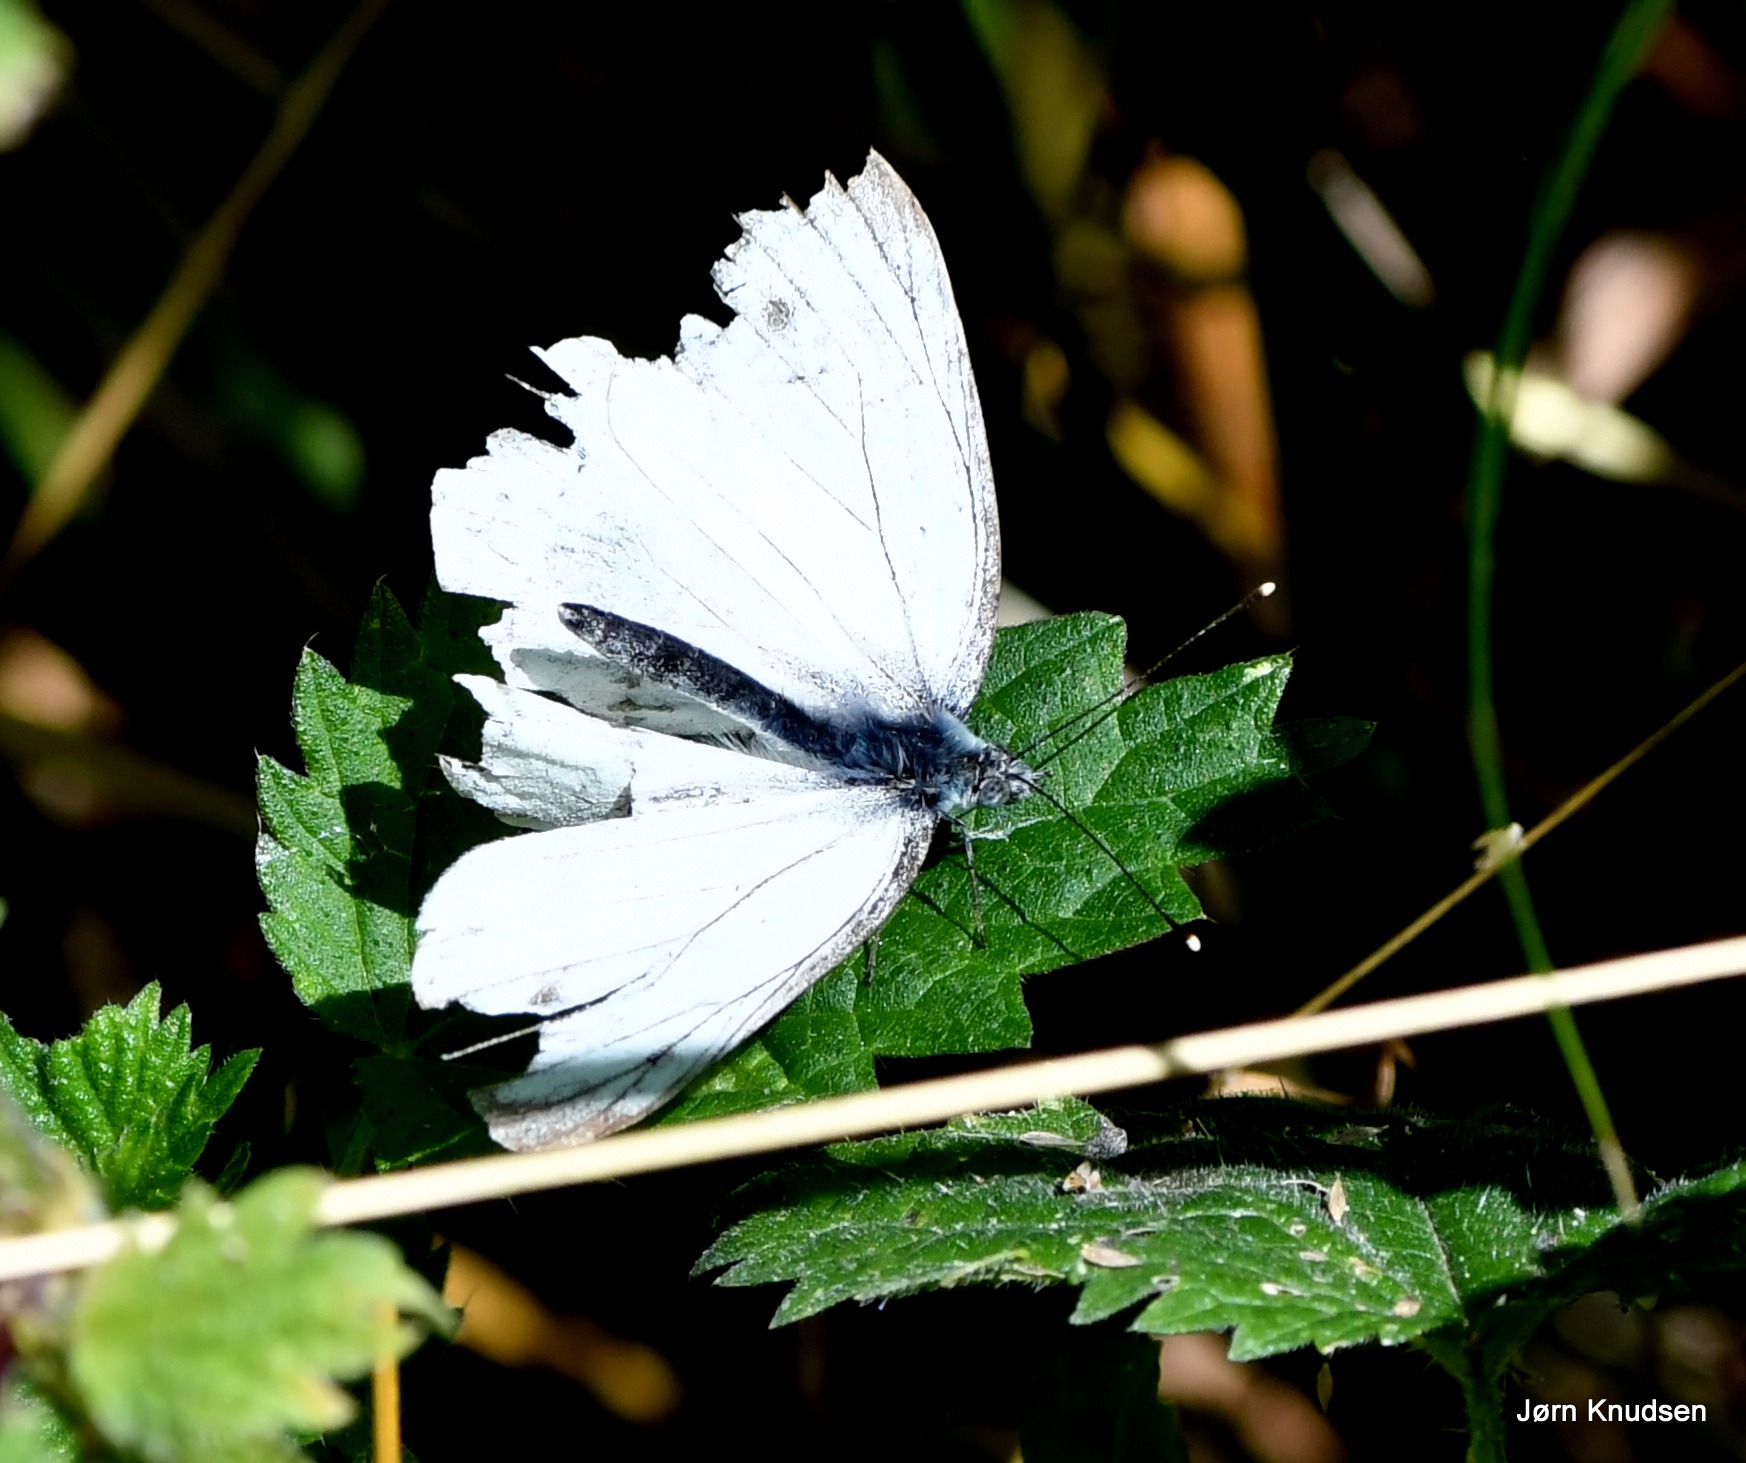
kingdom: Animalia
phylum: Arthropoda
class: Insecta
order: Lepidoptera
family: Pieridae
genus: Pieris
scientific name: Pieris napi
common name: Grønåret kålsommerfugl
